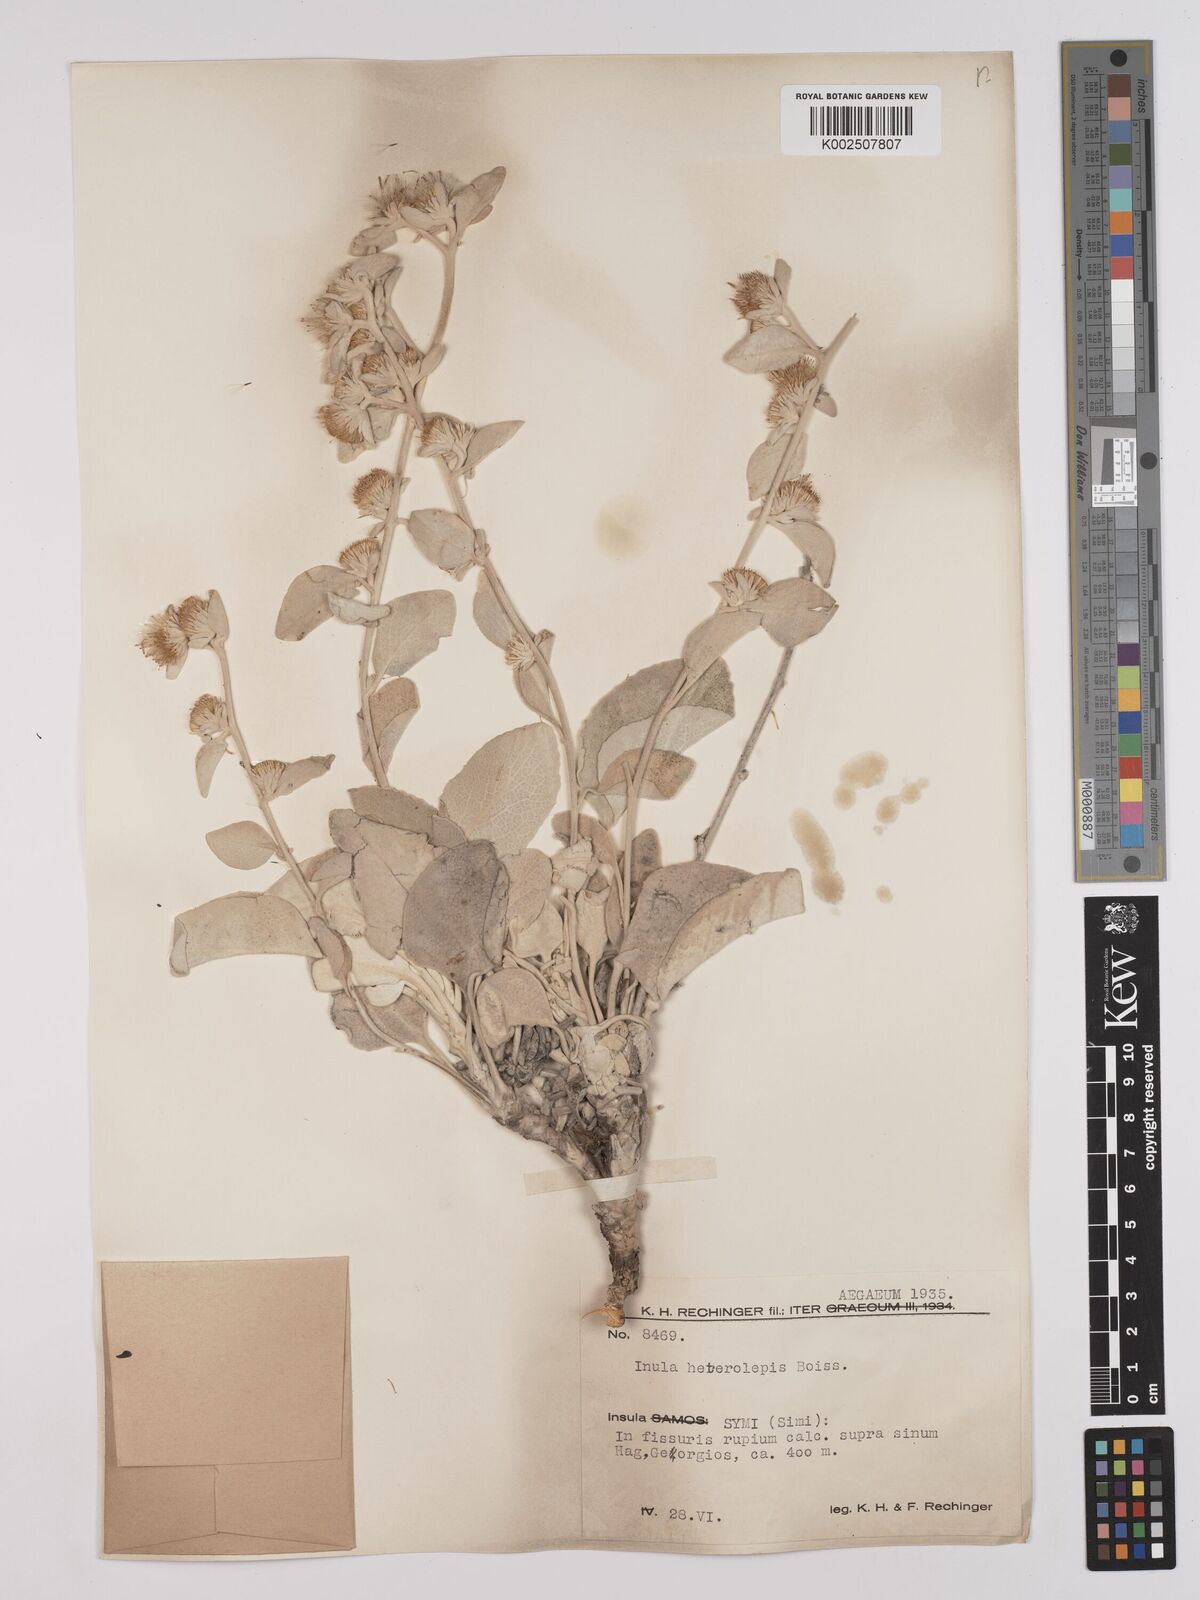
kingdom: Plantae
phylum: Tracheophyta
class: Magnoliopsida
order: Asterales
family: Asteraceae
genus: Pentanema
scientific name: Pentanema verbascifolium
